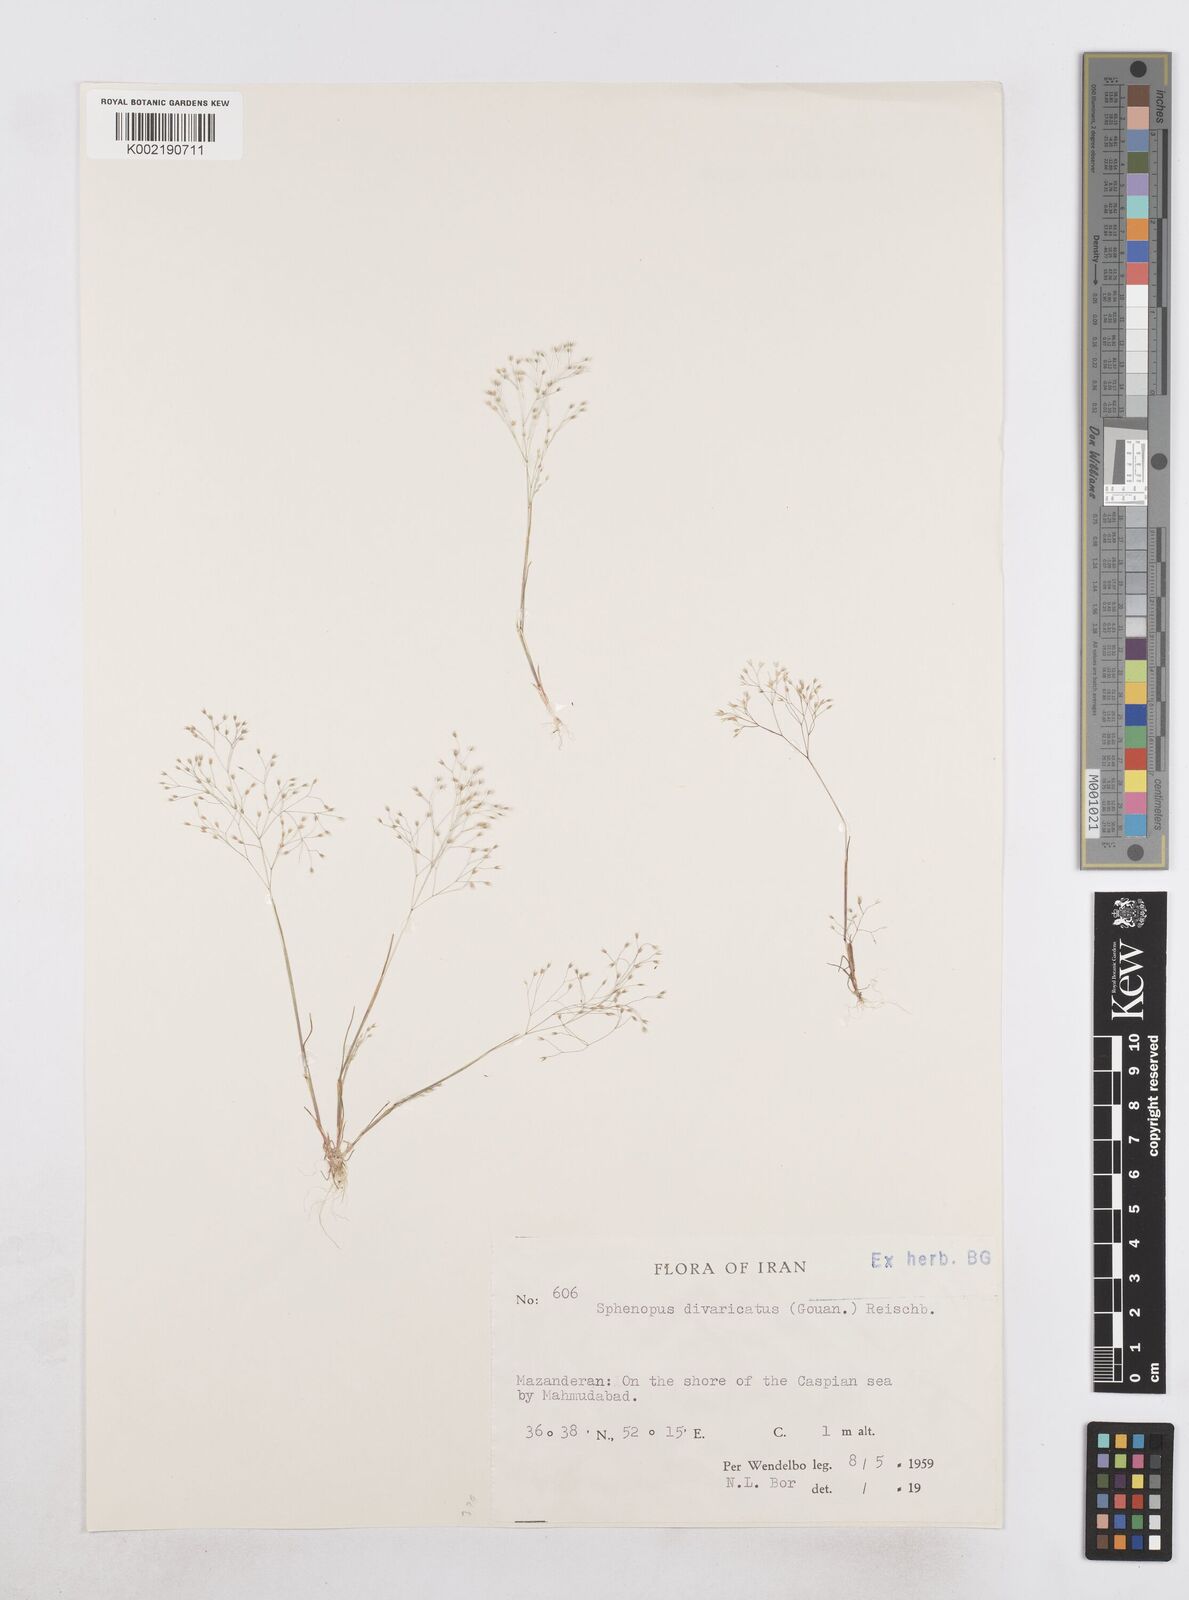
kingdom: Plantae
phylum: Tracheophyta
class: Liliopsida
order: Poales
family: Poaceae
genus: Sphenopus
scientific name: Sphenopus divaricatus
